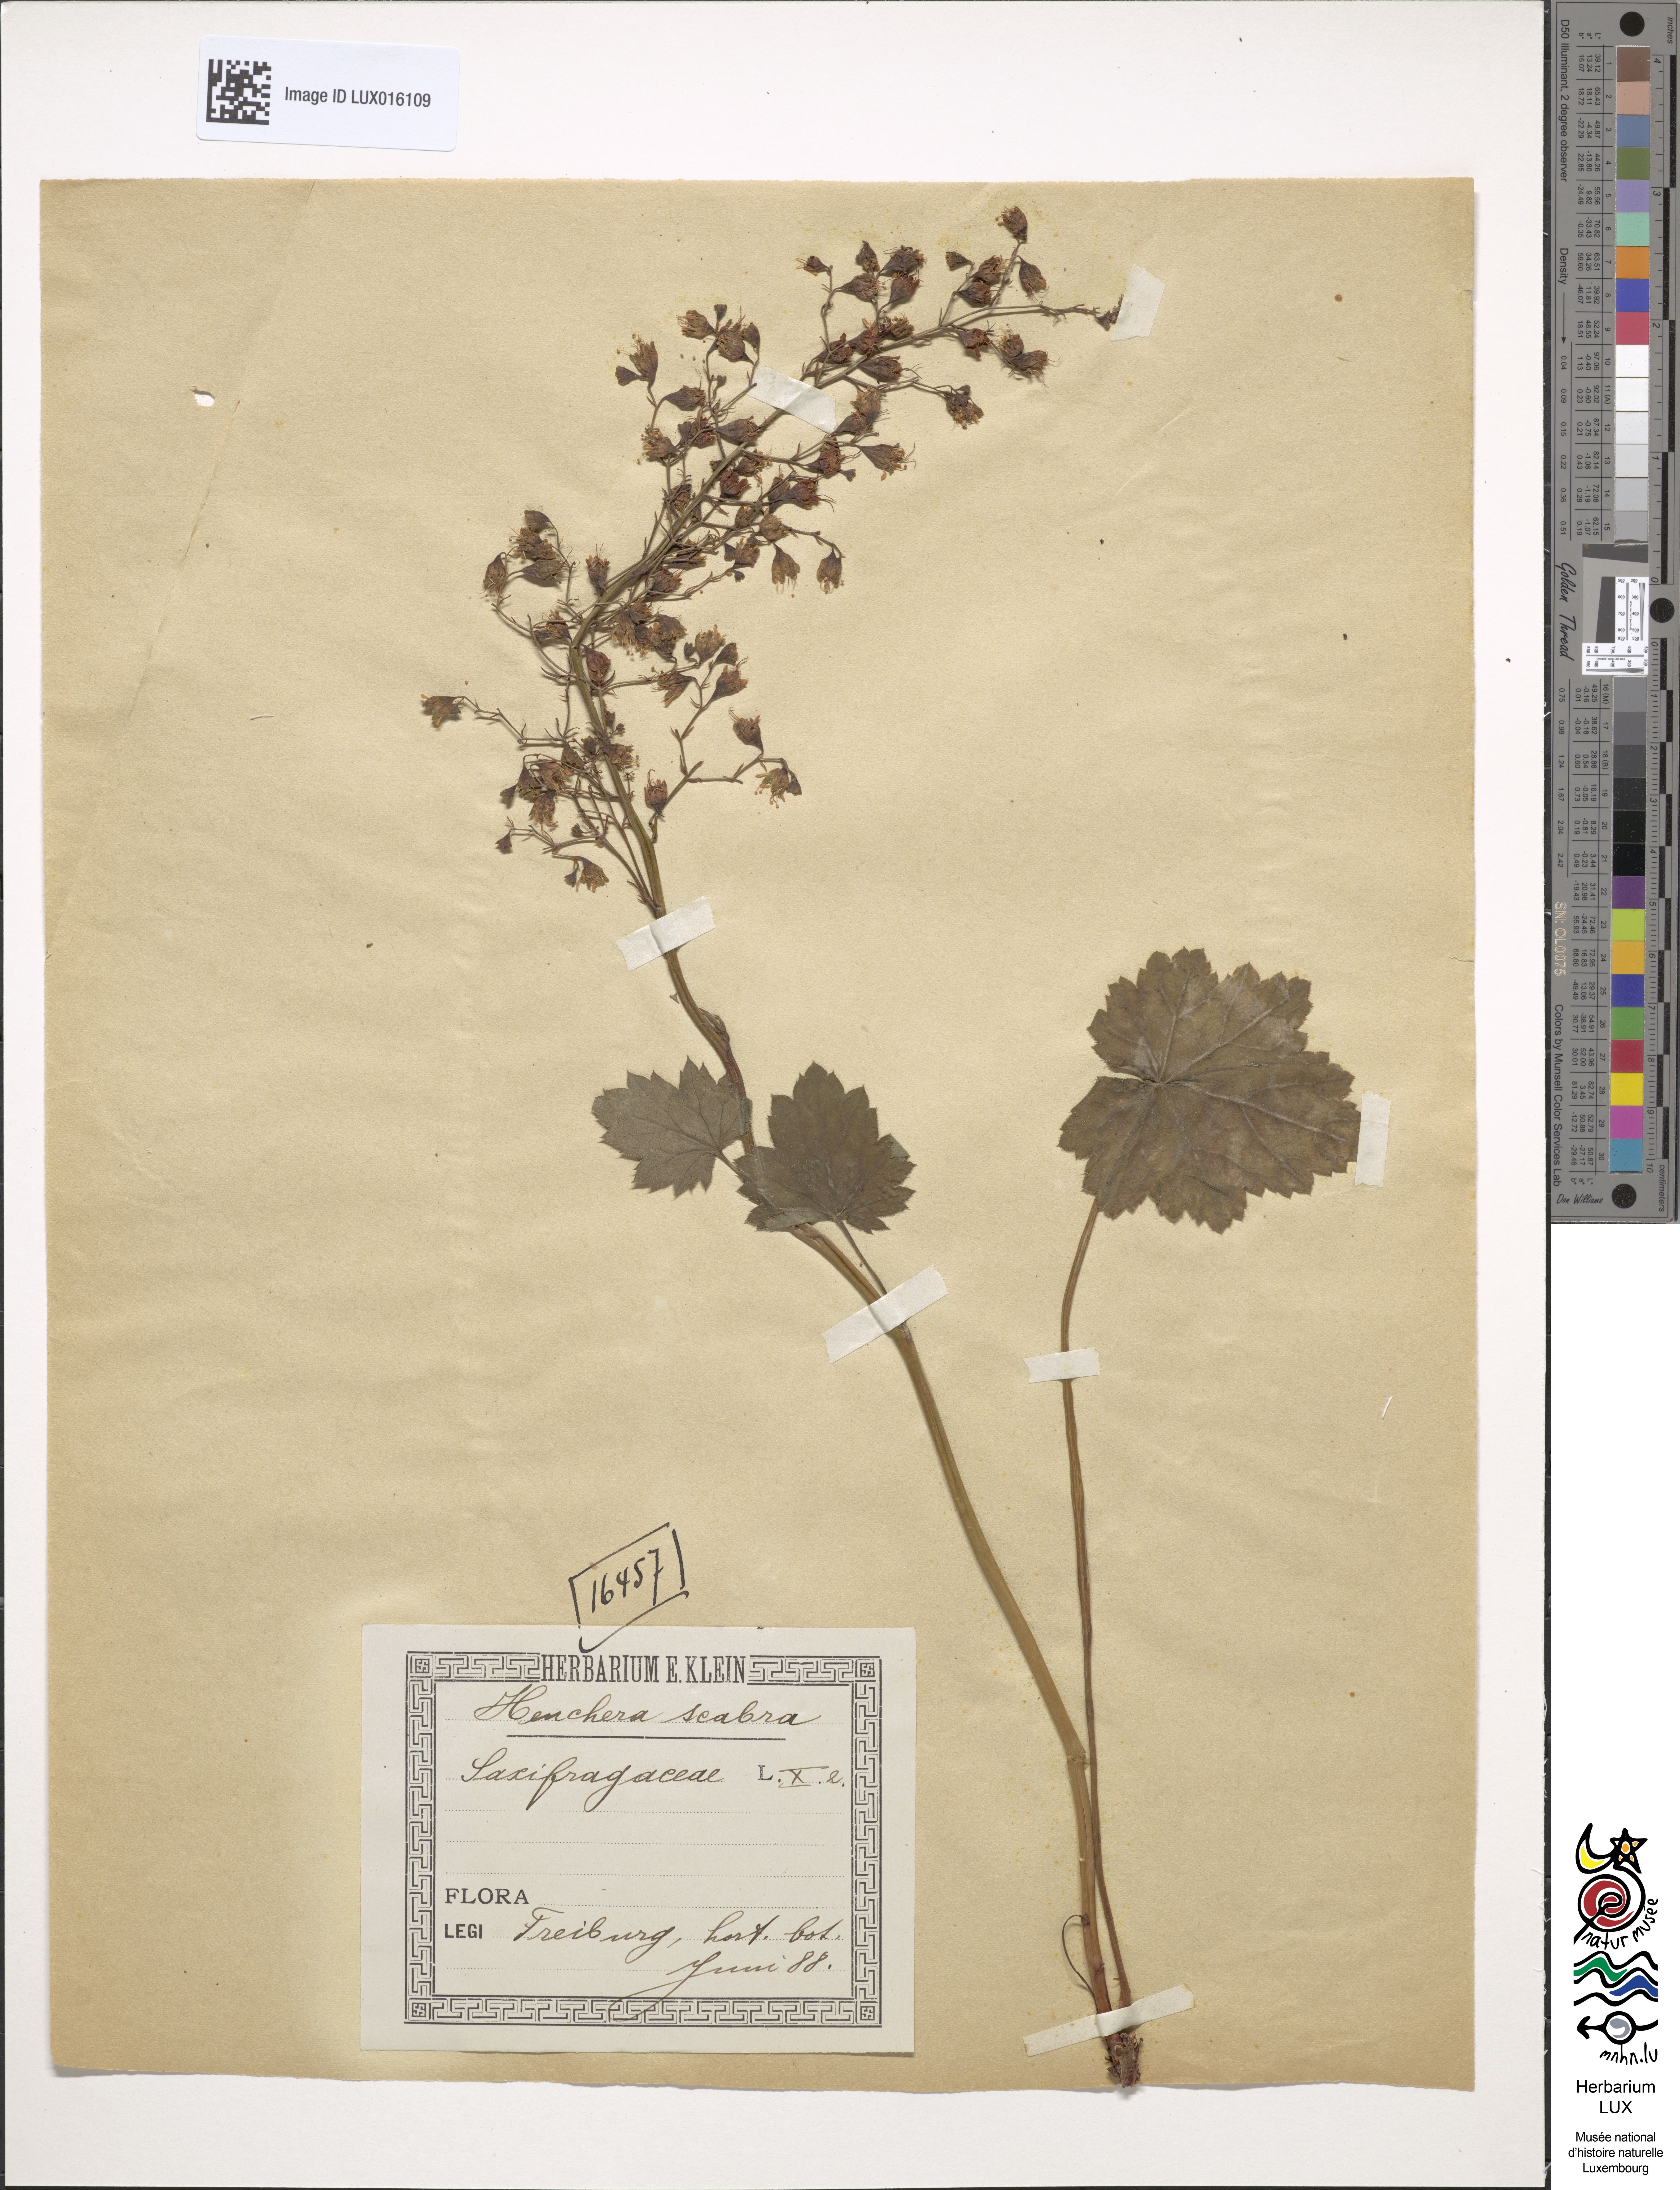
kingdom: Plantae
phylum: Tracheophyta
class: Magnoliopsida
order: Saxifragales
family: Saxifragaceae
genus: Heuchera
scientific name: Heuchera longiflora
